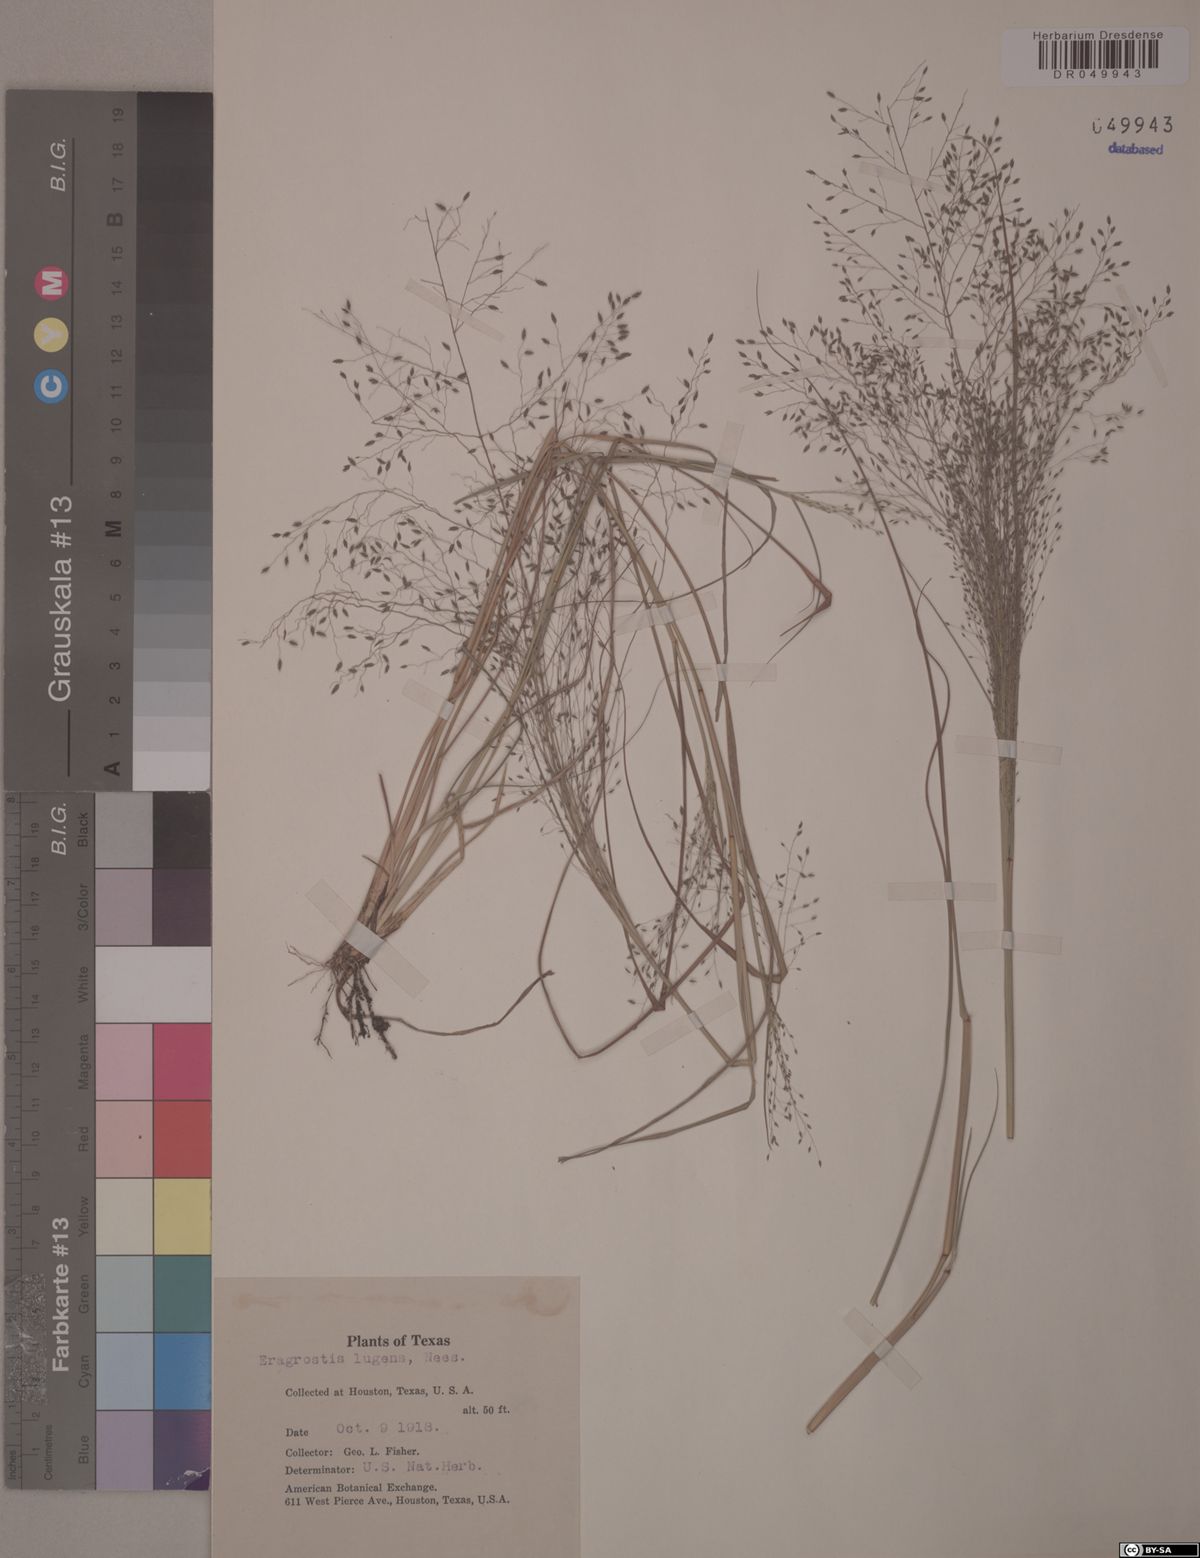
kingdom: Plantae
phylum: Tracheophyta
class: Liliopsida
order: Poales
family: Poaceae
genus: Eragrostis
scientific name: Eragrostis lugens
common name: Mourning love grass
